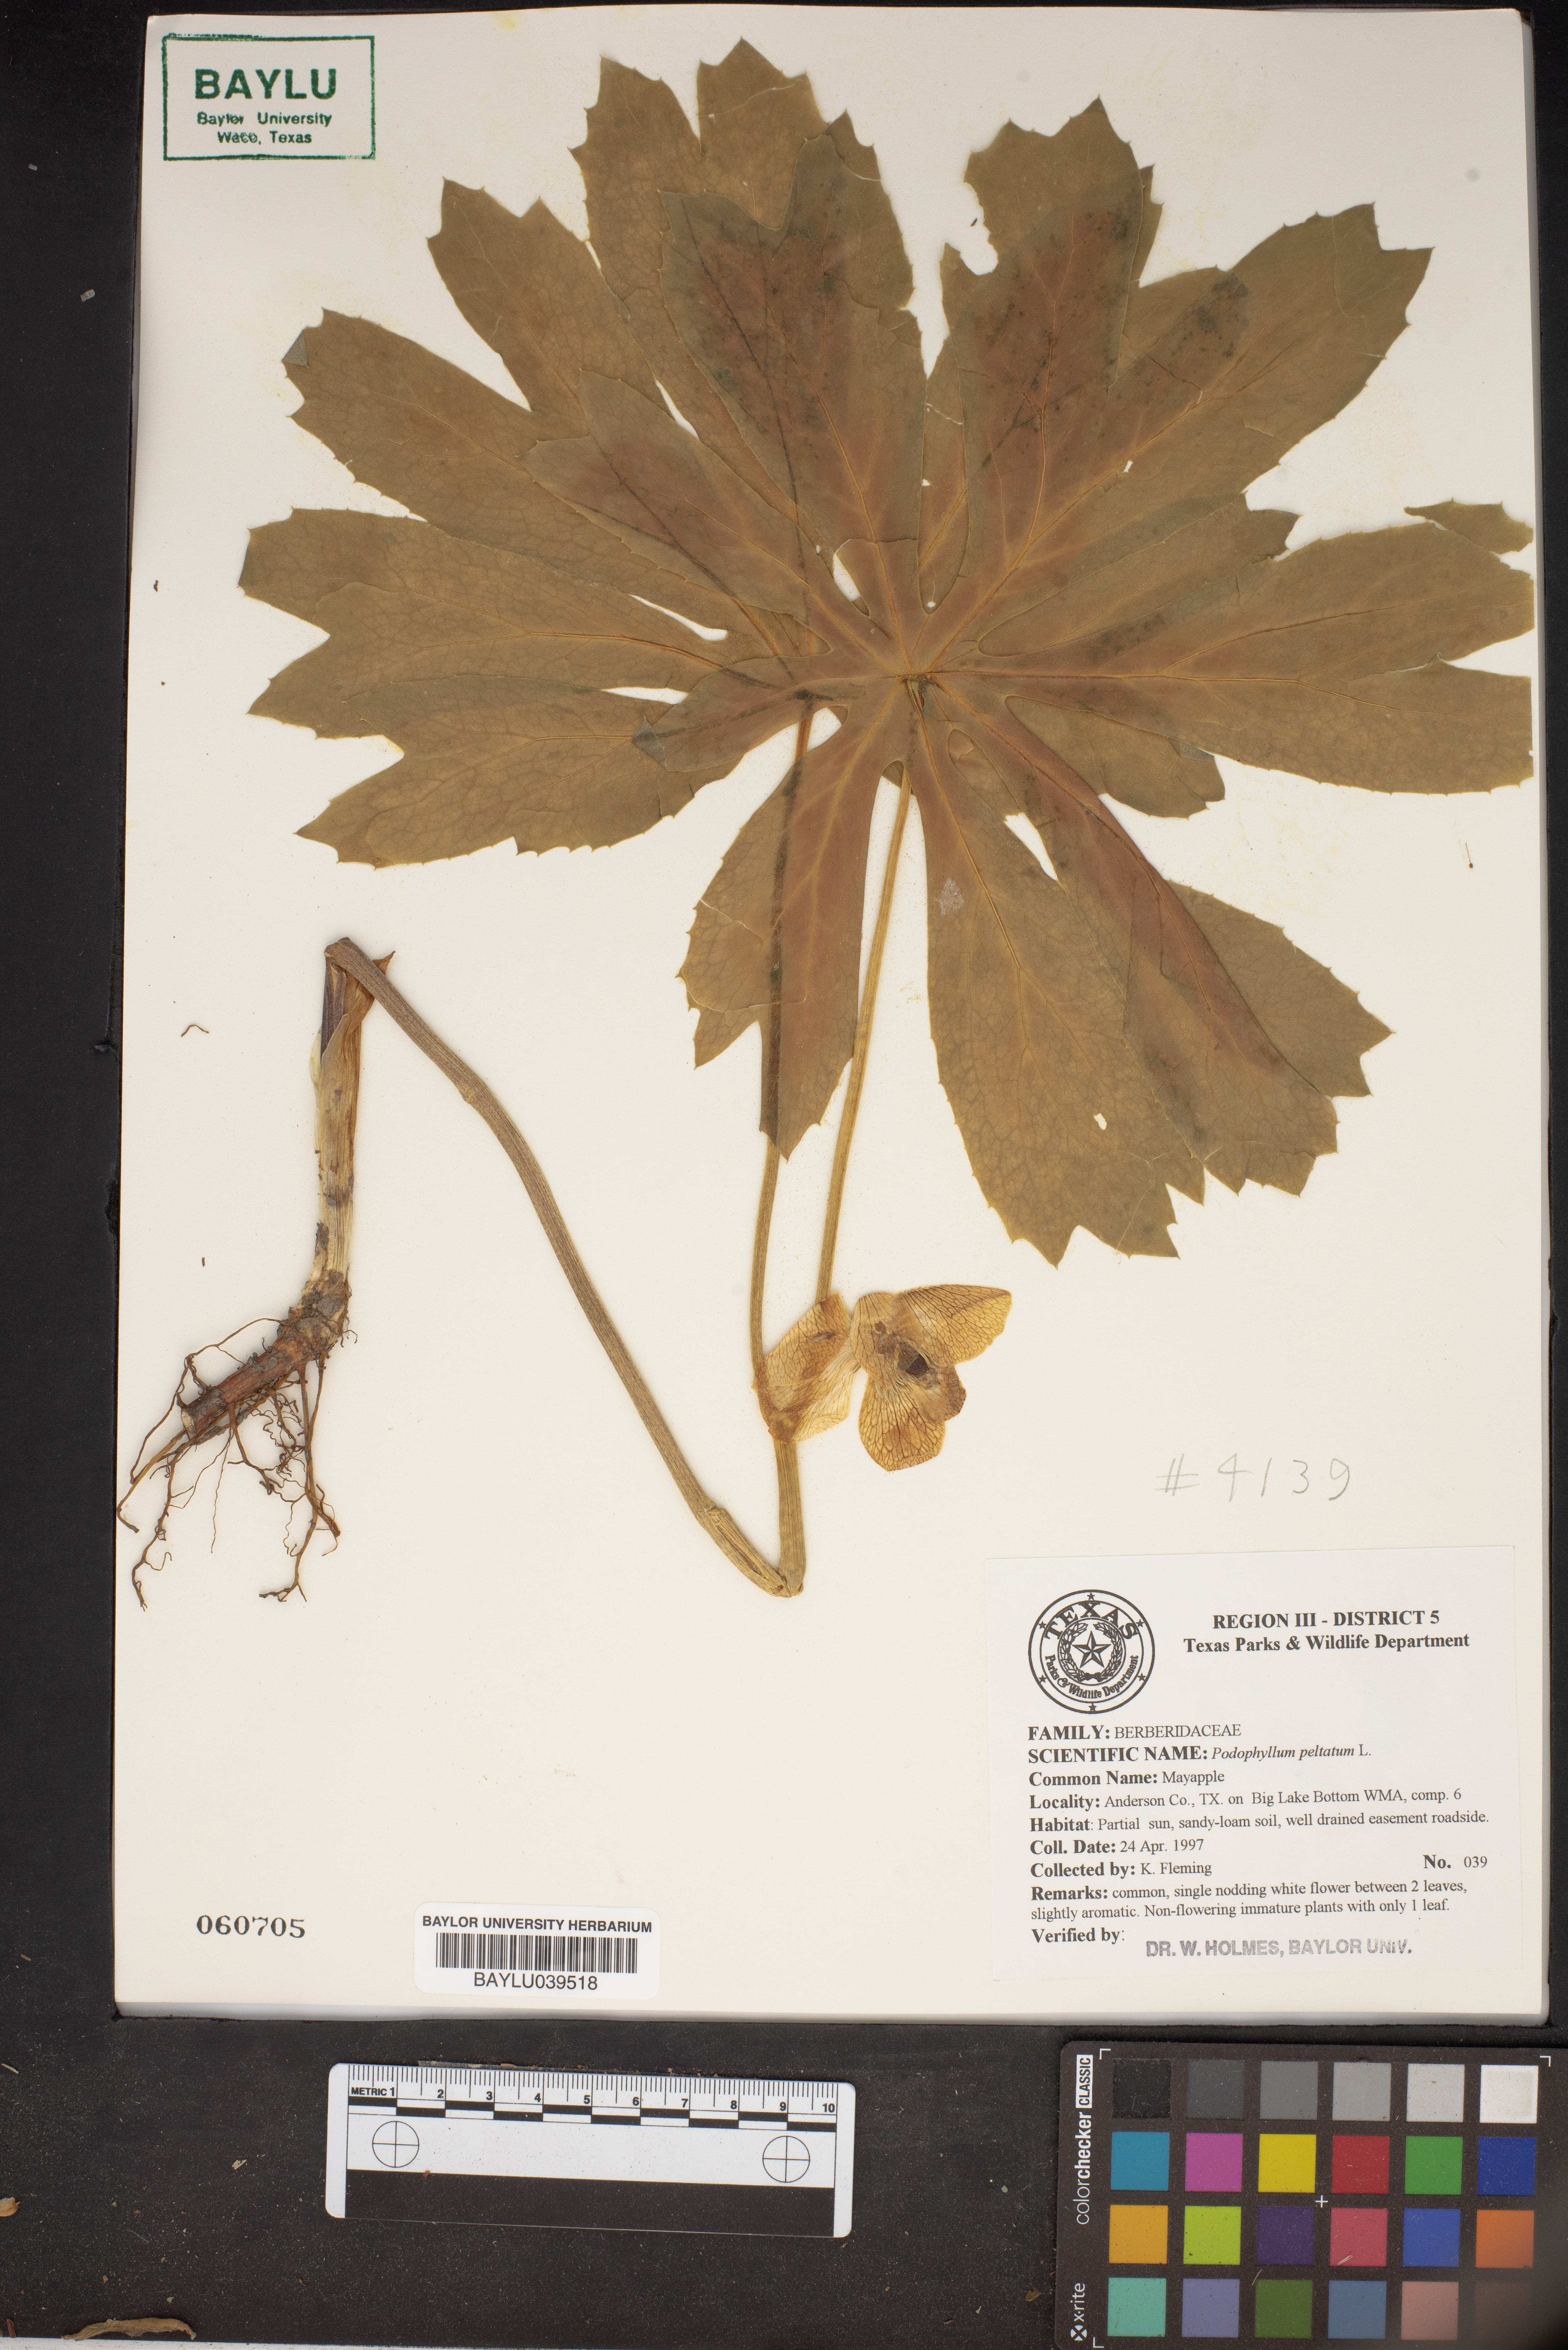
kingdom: Plantae
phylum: Tracheophyta
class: Magnoliopsida
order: Ranunculales
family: Berberidaceae
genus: Podophyllum
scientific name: Podophyllum peltatum
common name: Wild mandrake
